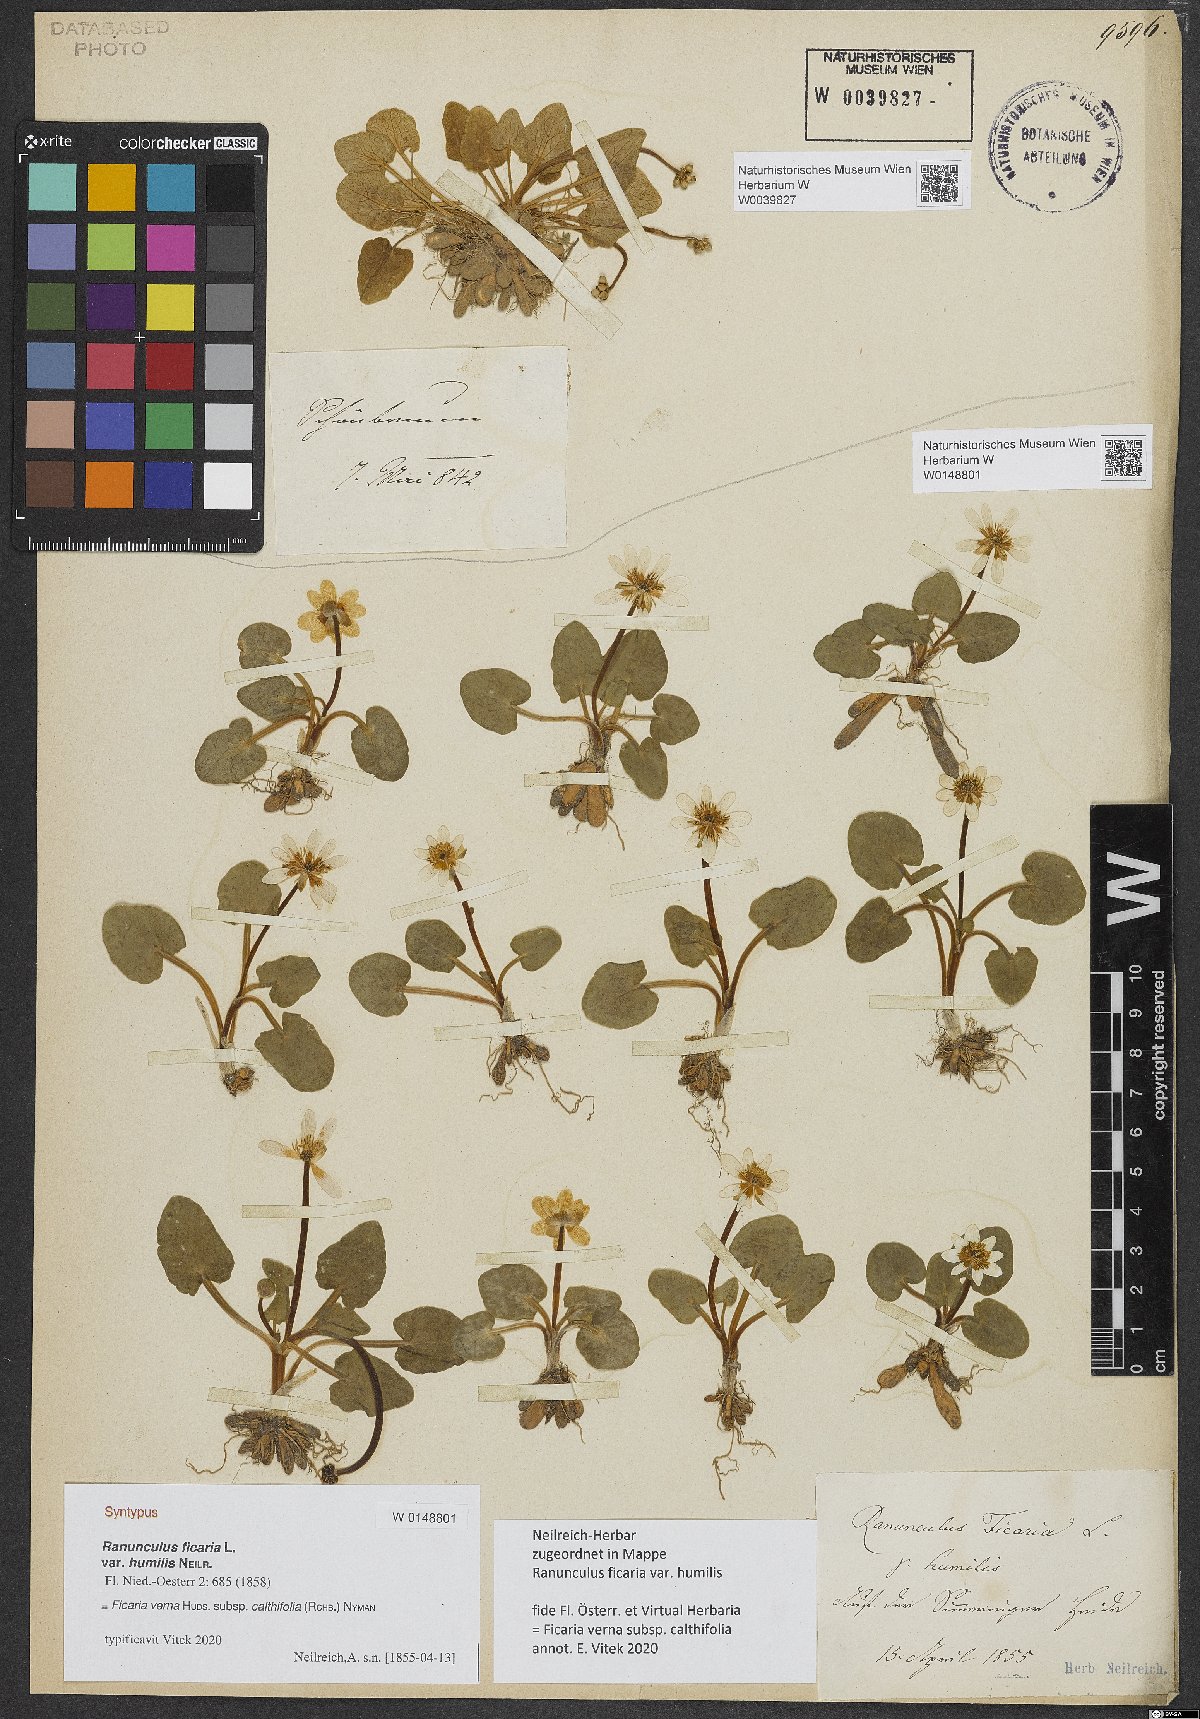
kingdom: Plantae
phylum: Tracheophyta
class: Magnoliopsida
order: Ranunculales
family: Ranunculaceae
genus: Ficaria
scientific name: Ficaria verna
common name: Lesser celandine
